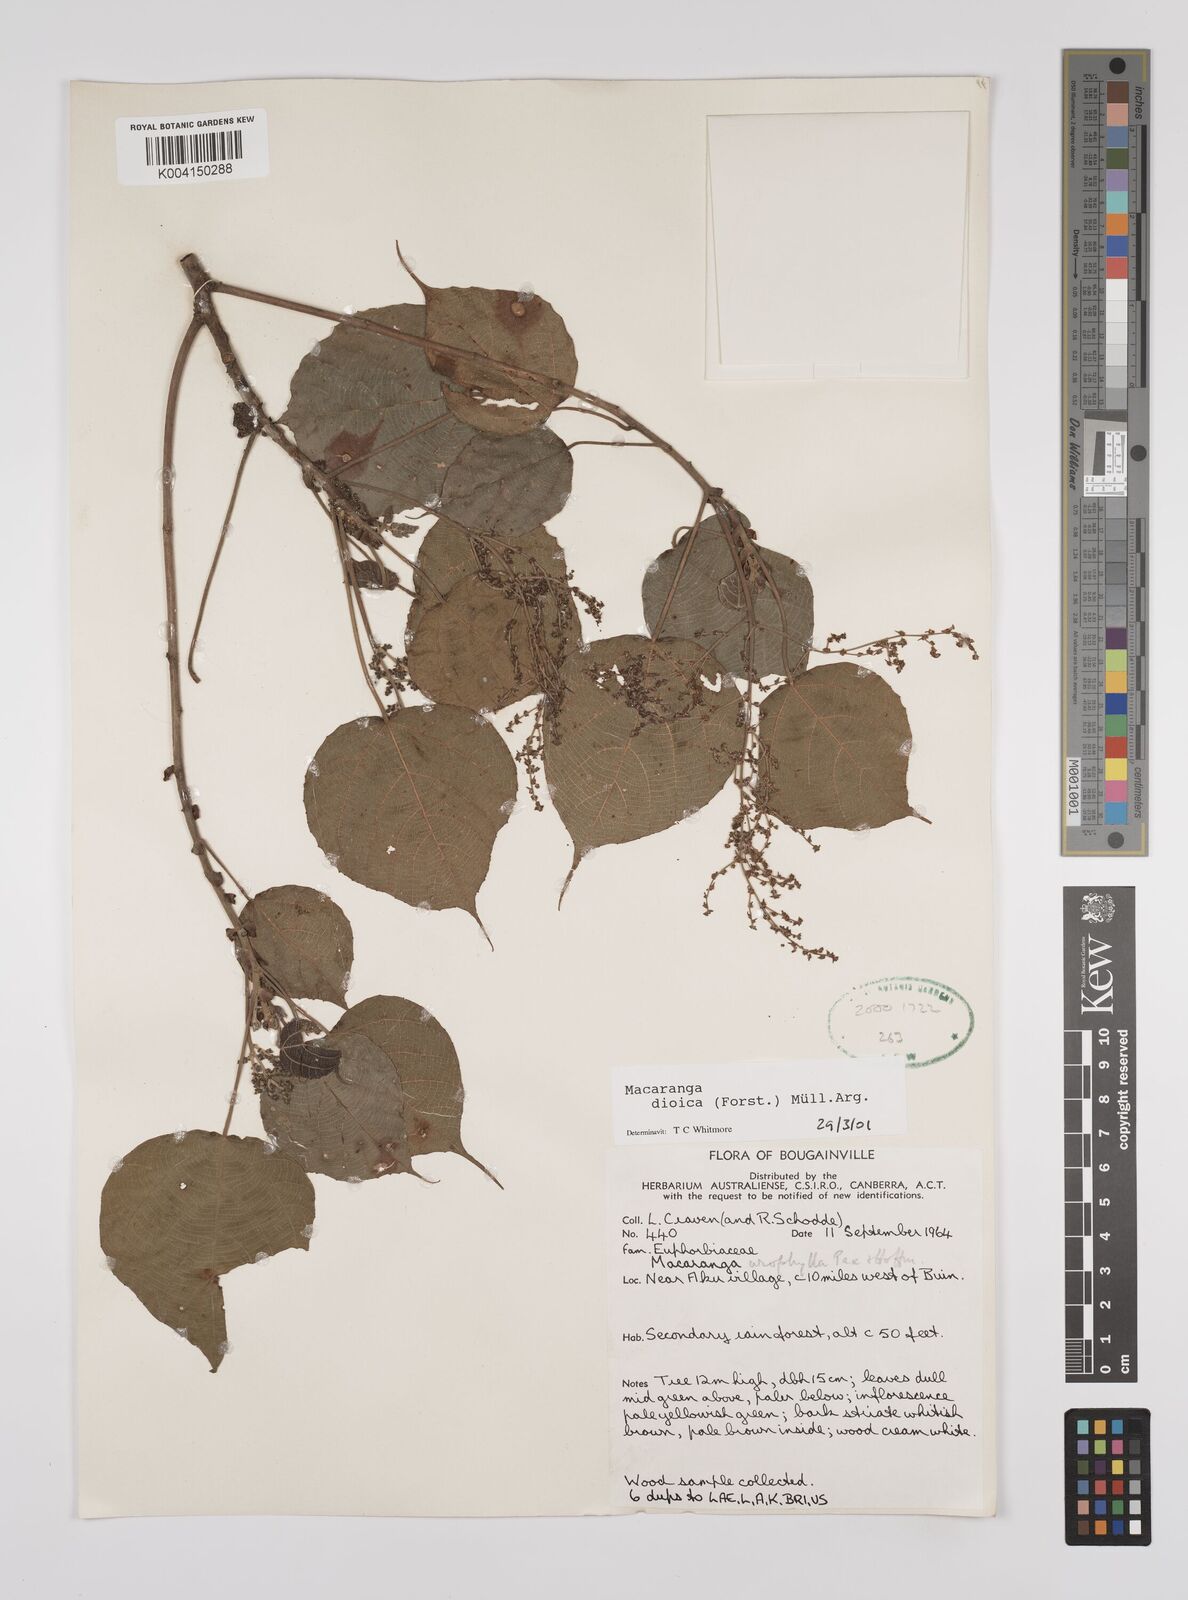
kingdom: Plantae
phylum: Tracheophyta
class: Magnoliopsida
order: Malpighiales
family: Euphorbiaceae
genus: Macaranga
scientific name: Macaranga dioica
